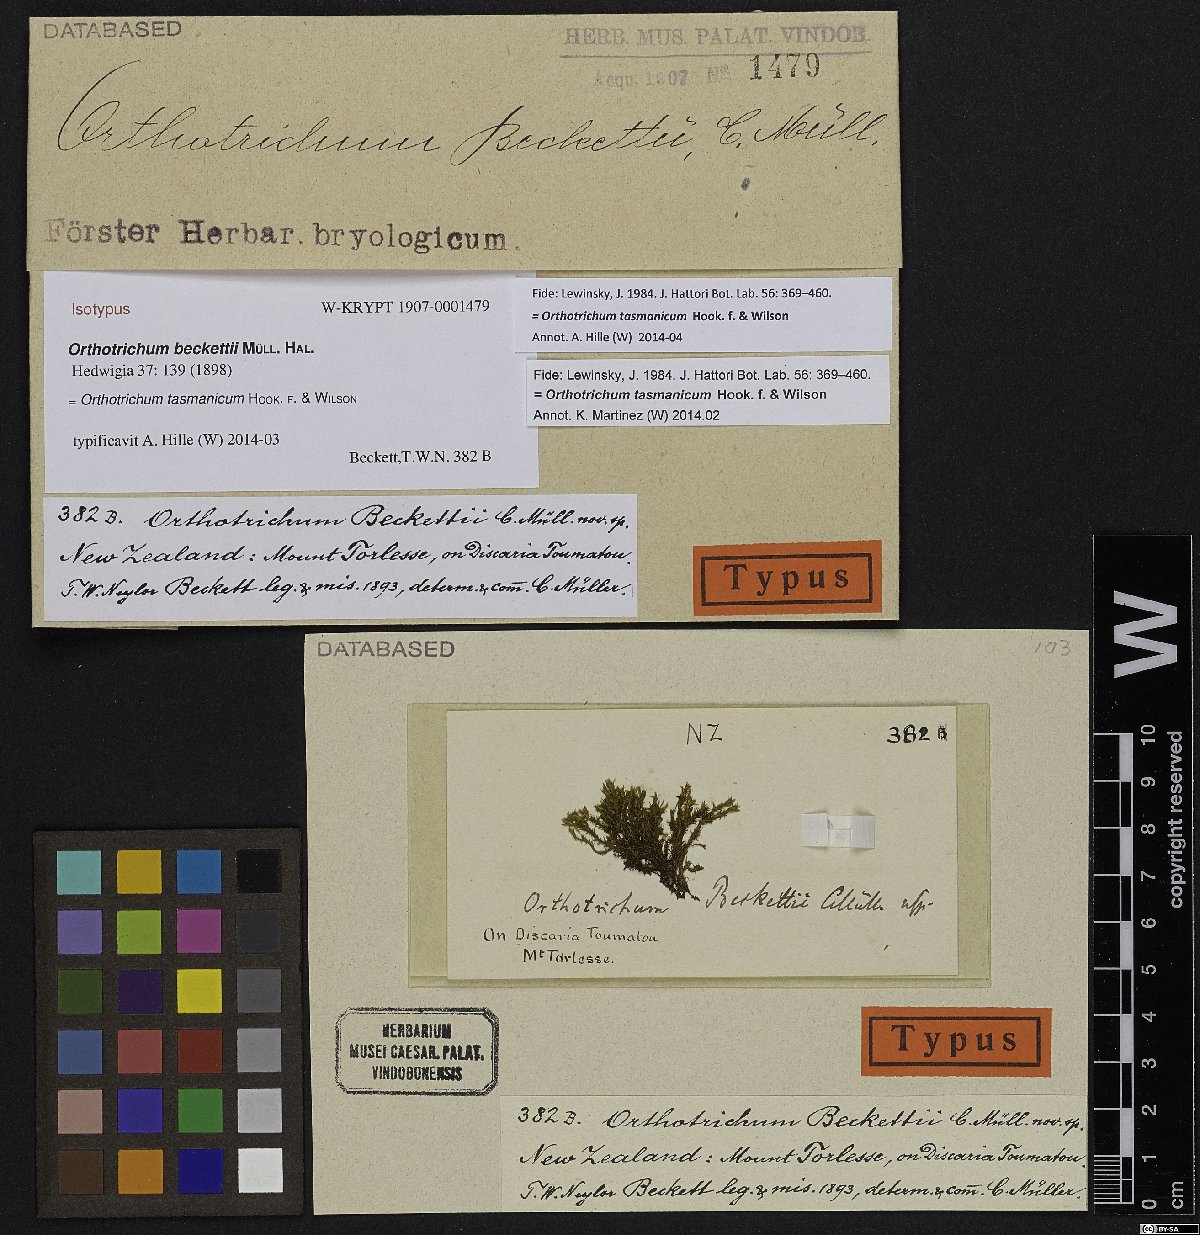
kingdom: Plantae
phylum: Bryophyta
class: Bryopsida
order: Orthotrichales
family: Orthotrichaceae
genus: Lewinskya
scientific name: Lewinskya tasmanica
